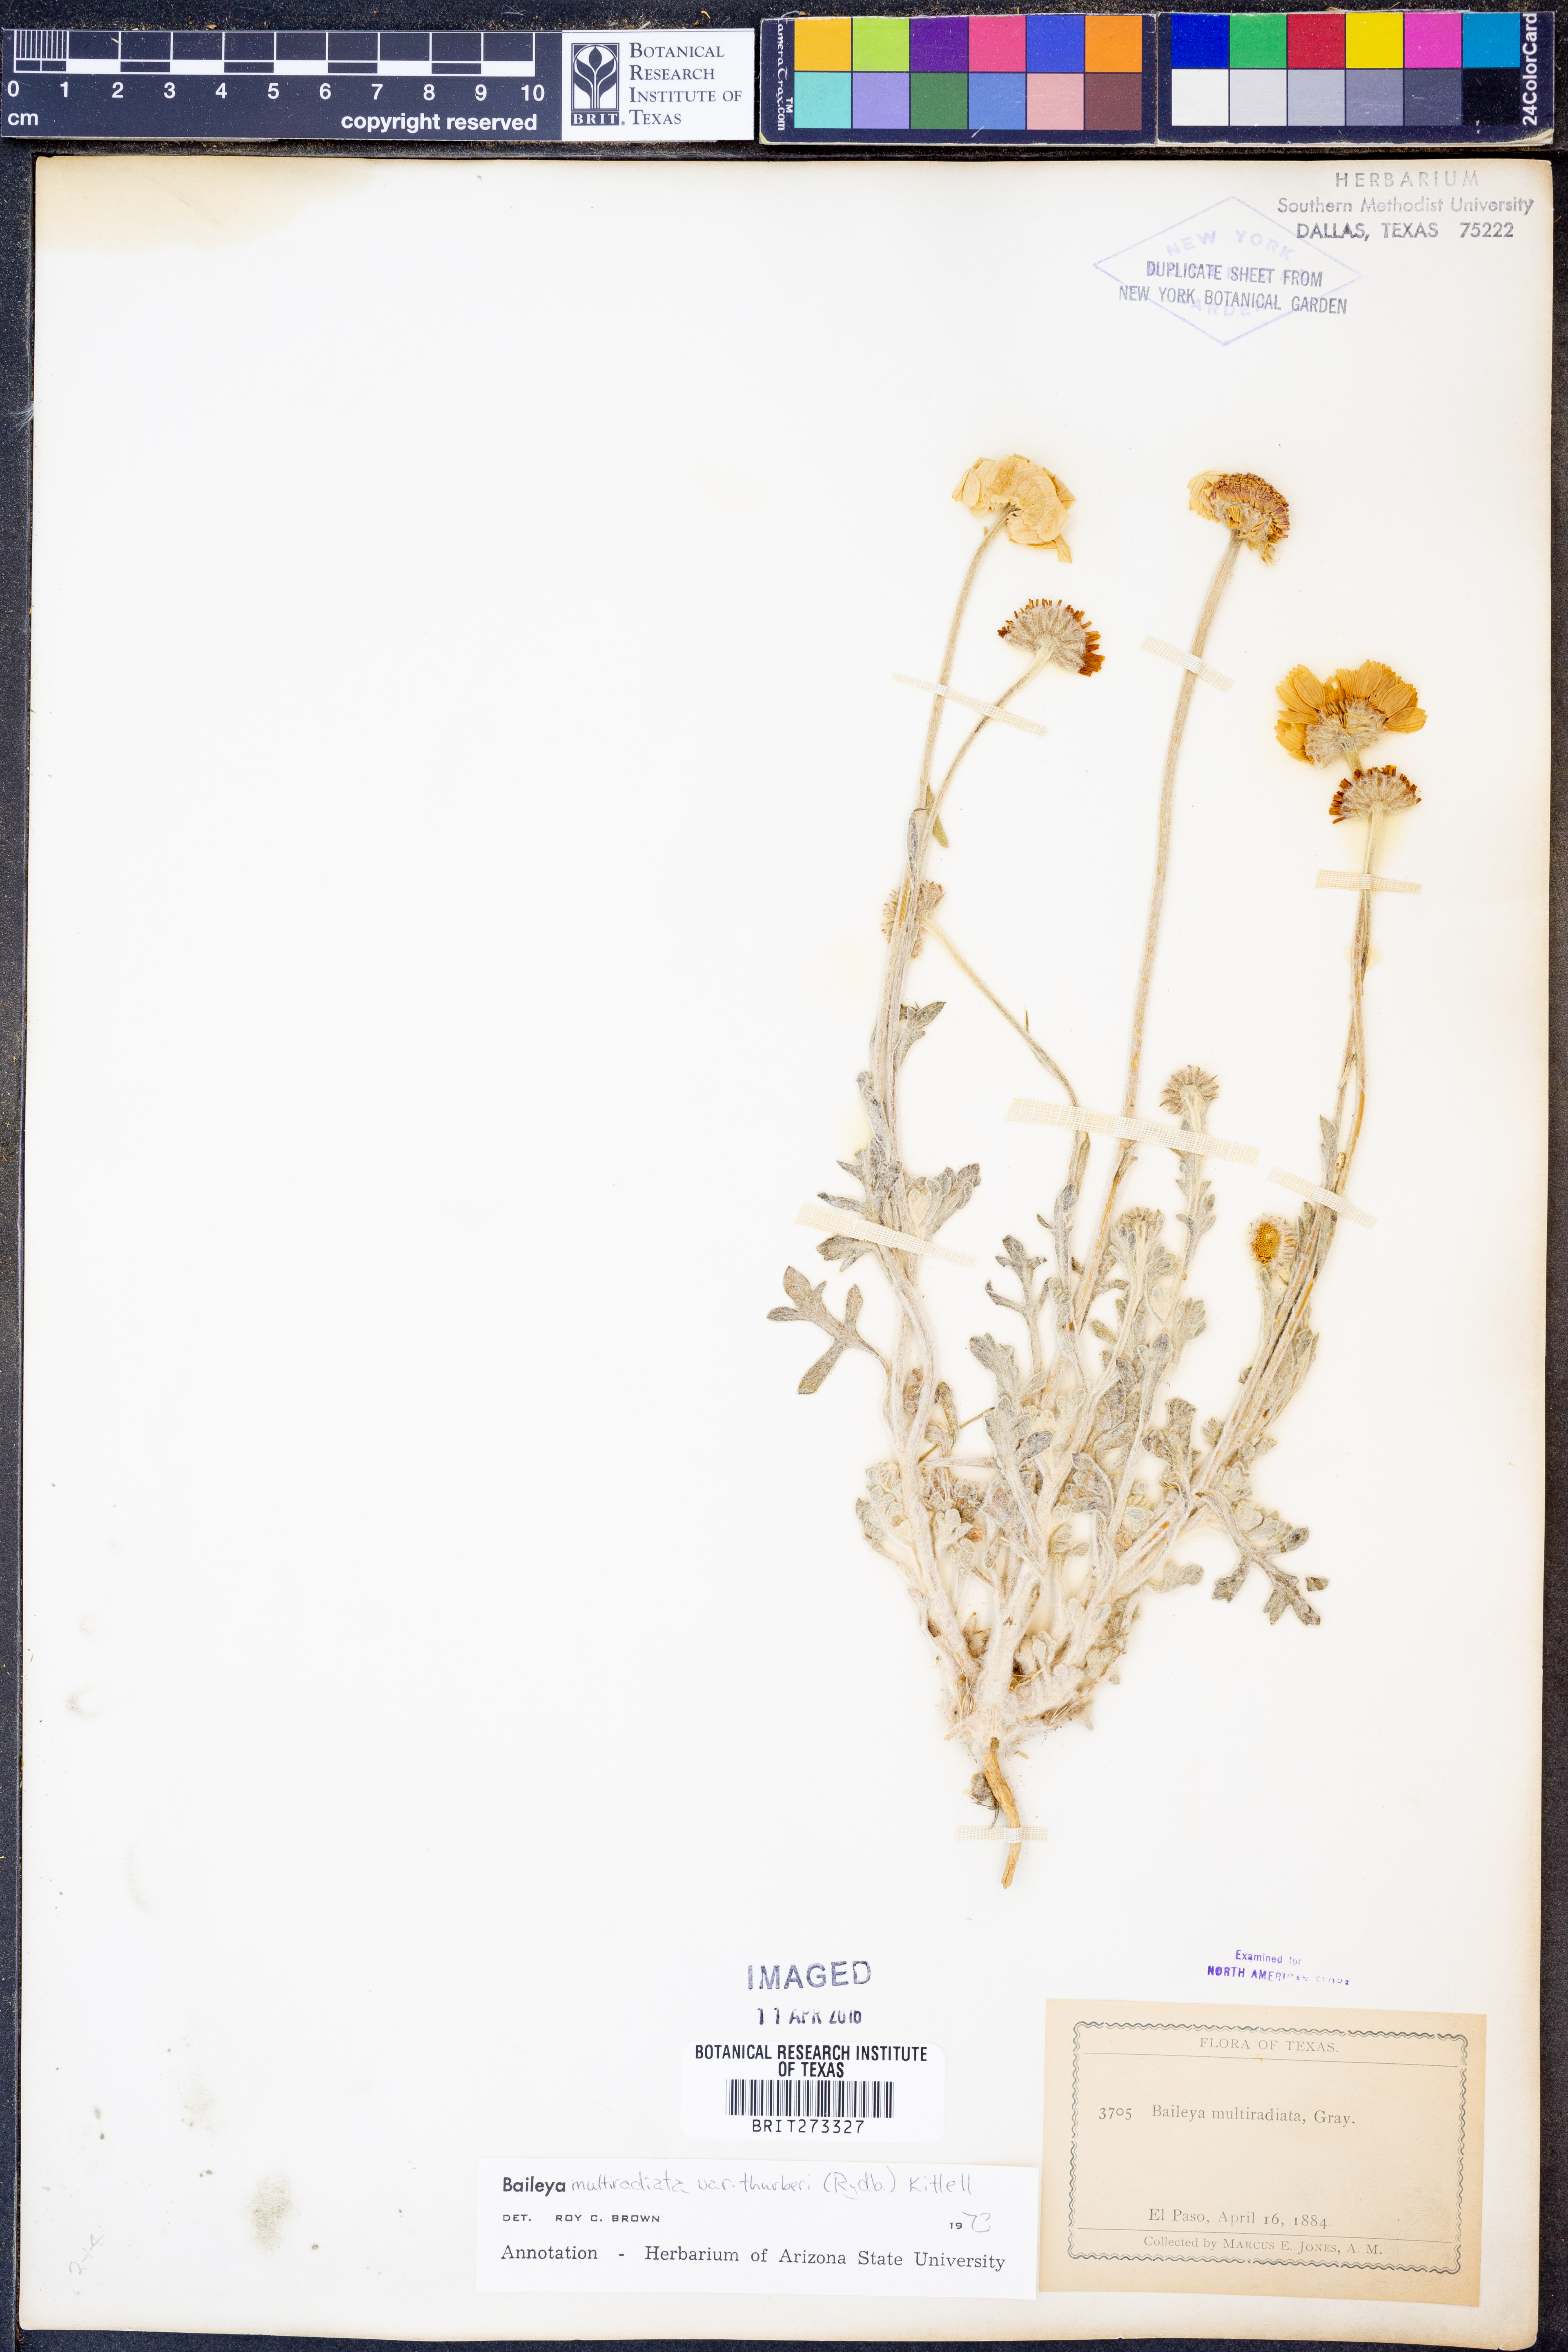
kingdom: Plantae
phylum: Tracheophyta
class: Magnoliopsida
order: Asterales
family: Asteraceae
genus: Baileya
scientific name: Baileya multiradiata
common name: Desert-marigold
